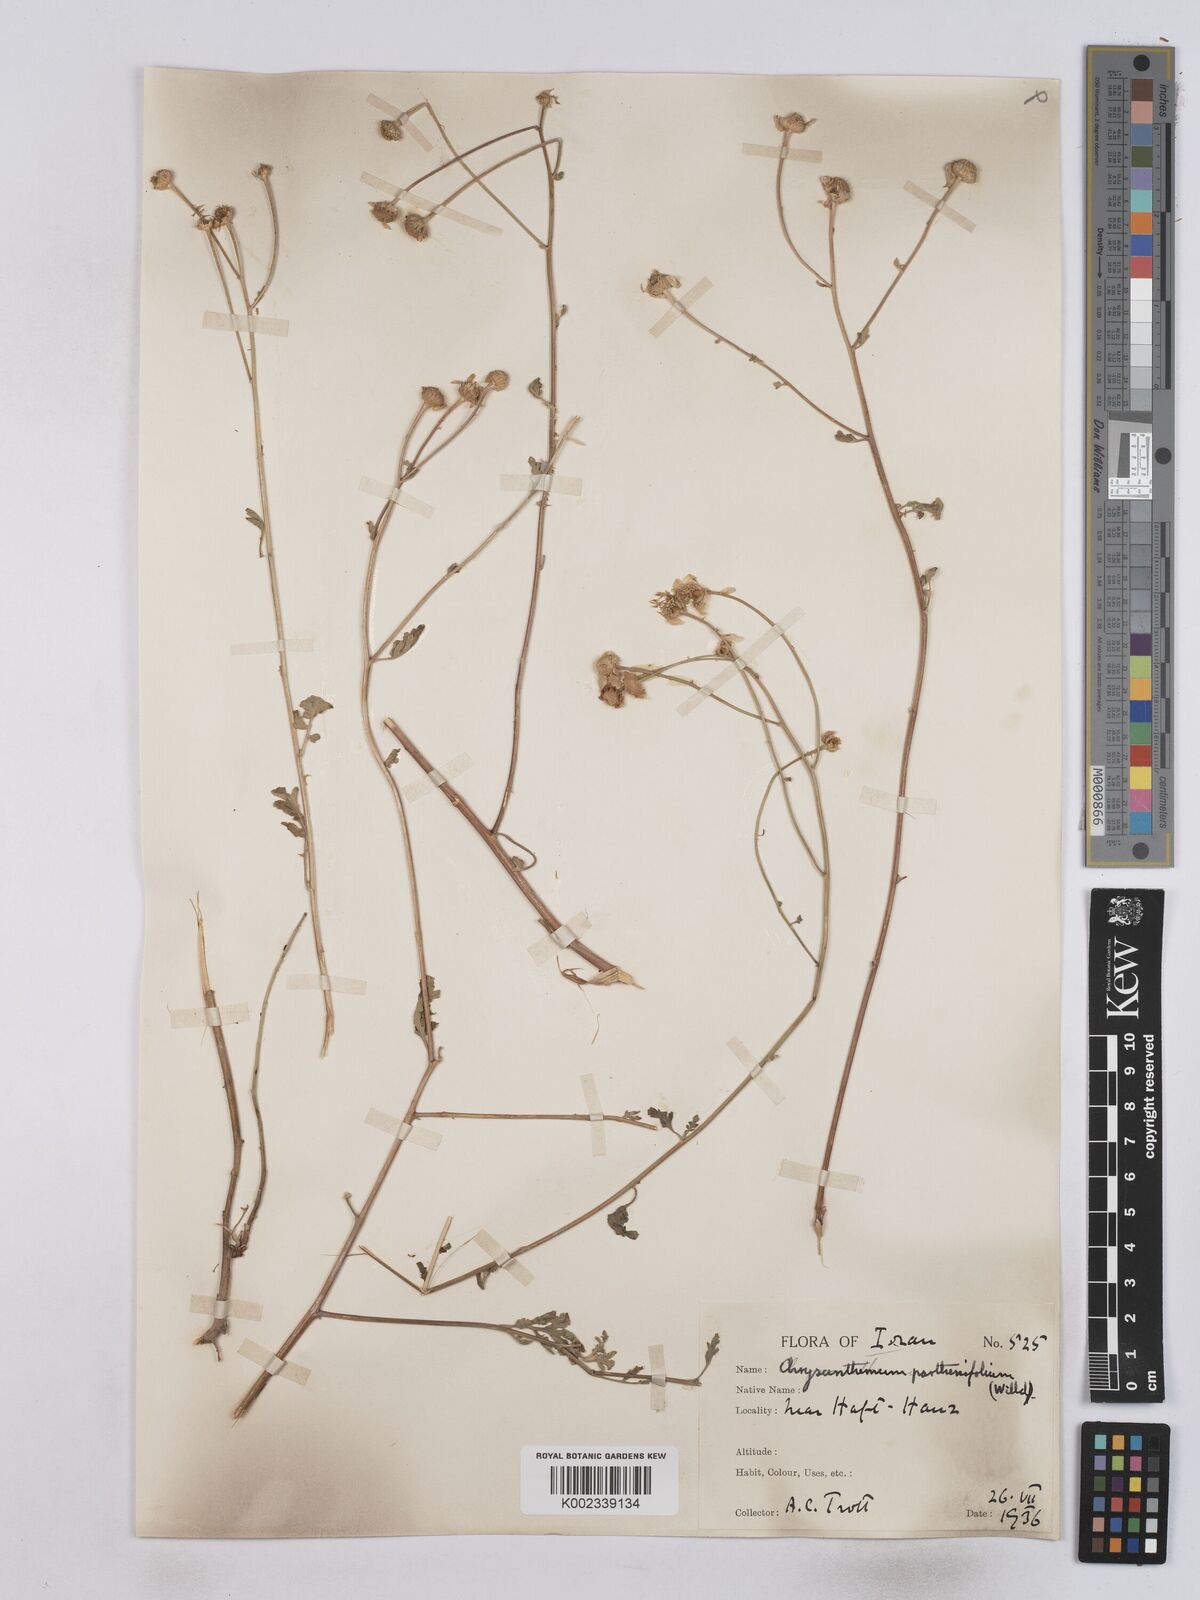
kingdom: Plantae
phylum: Tracheophyta
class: Magnoliopsida
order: Asterales
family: Asteraceae
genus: Tanacetum
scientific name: Tanacetum partheniifolium
